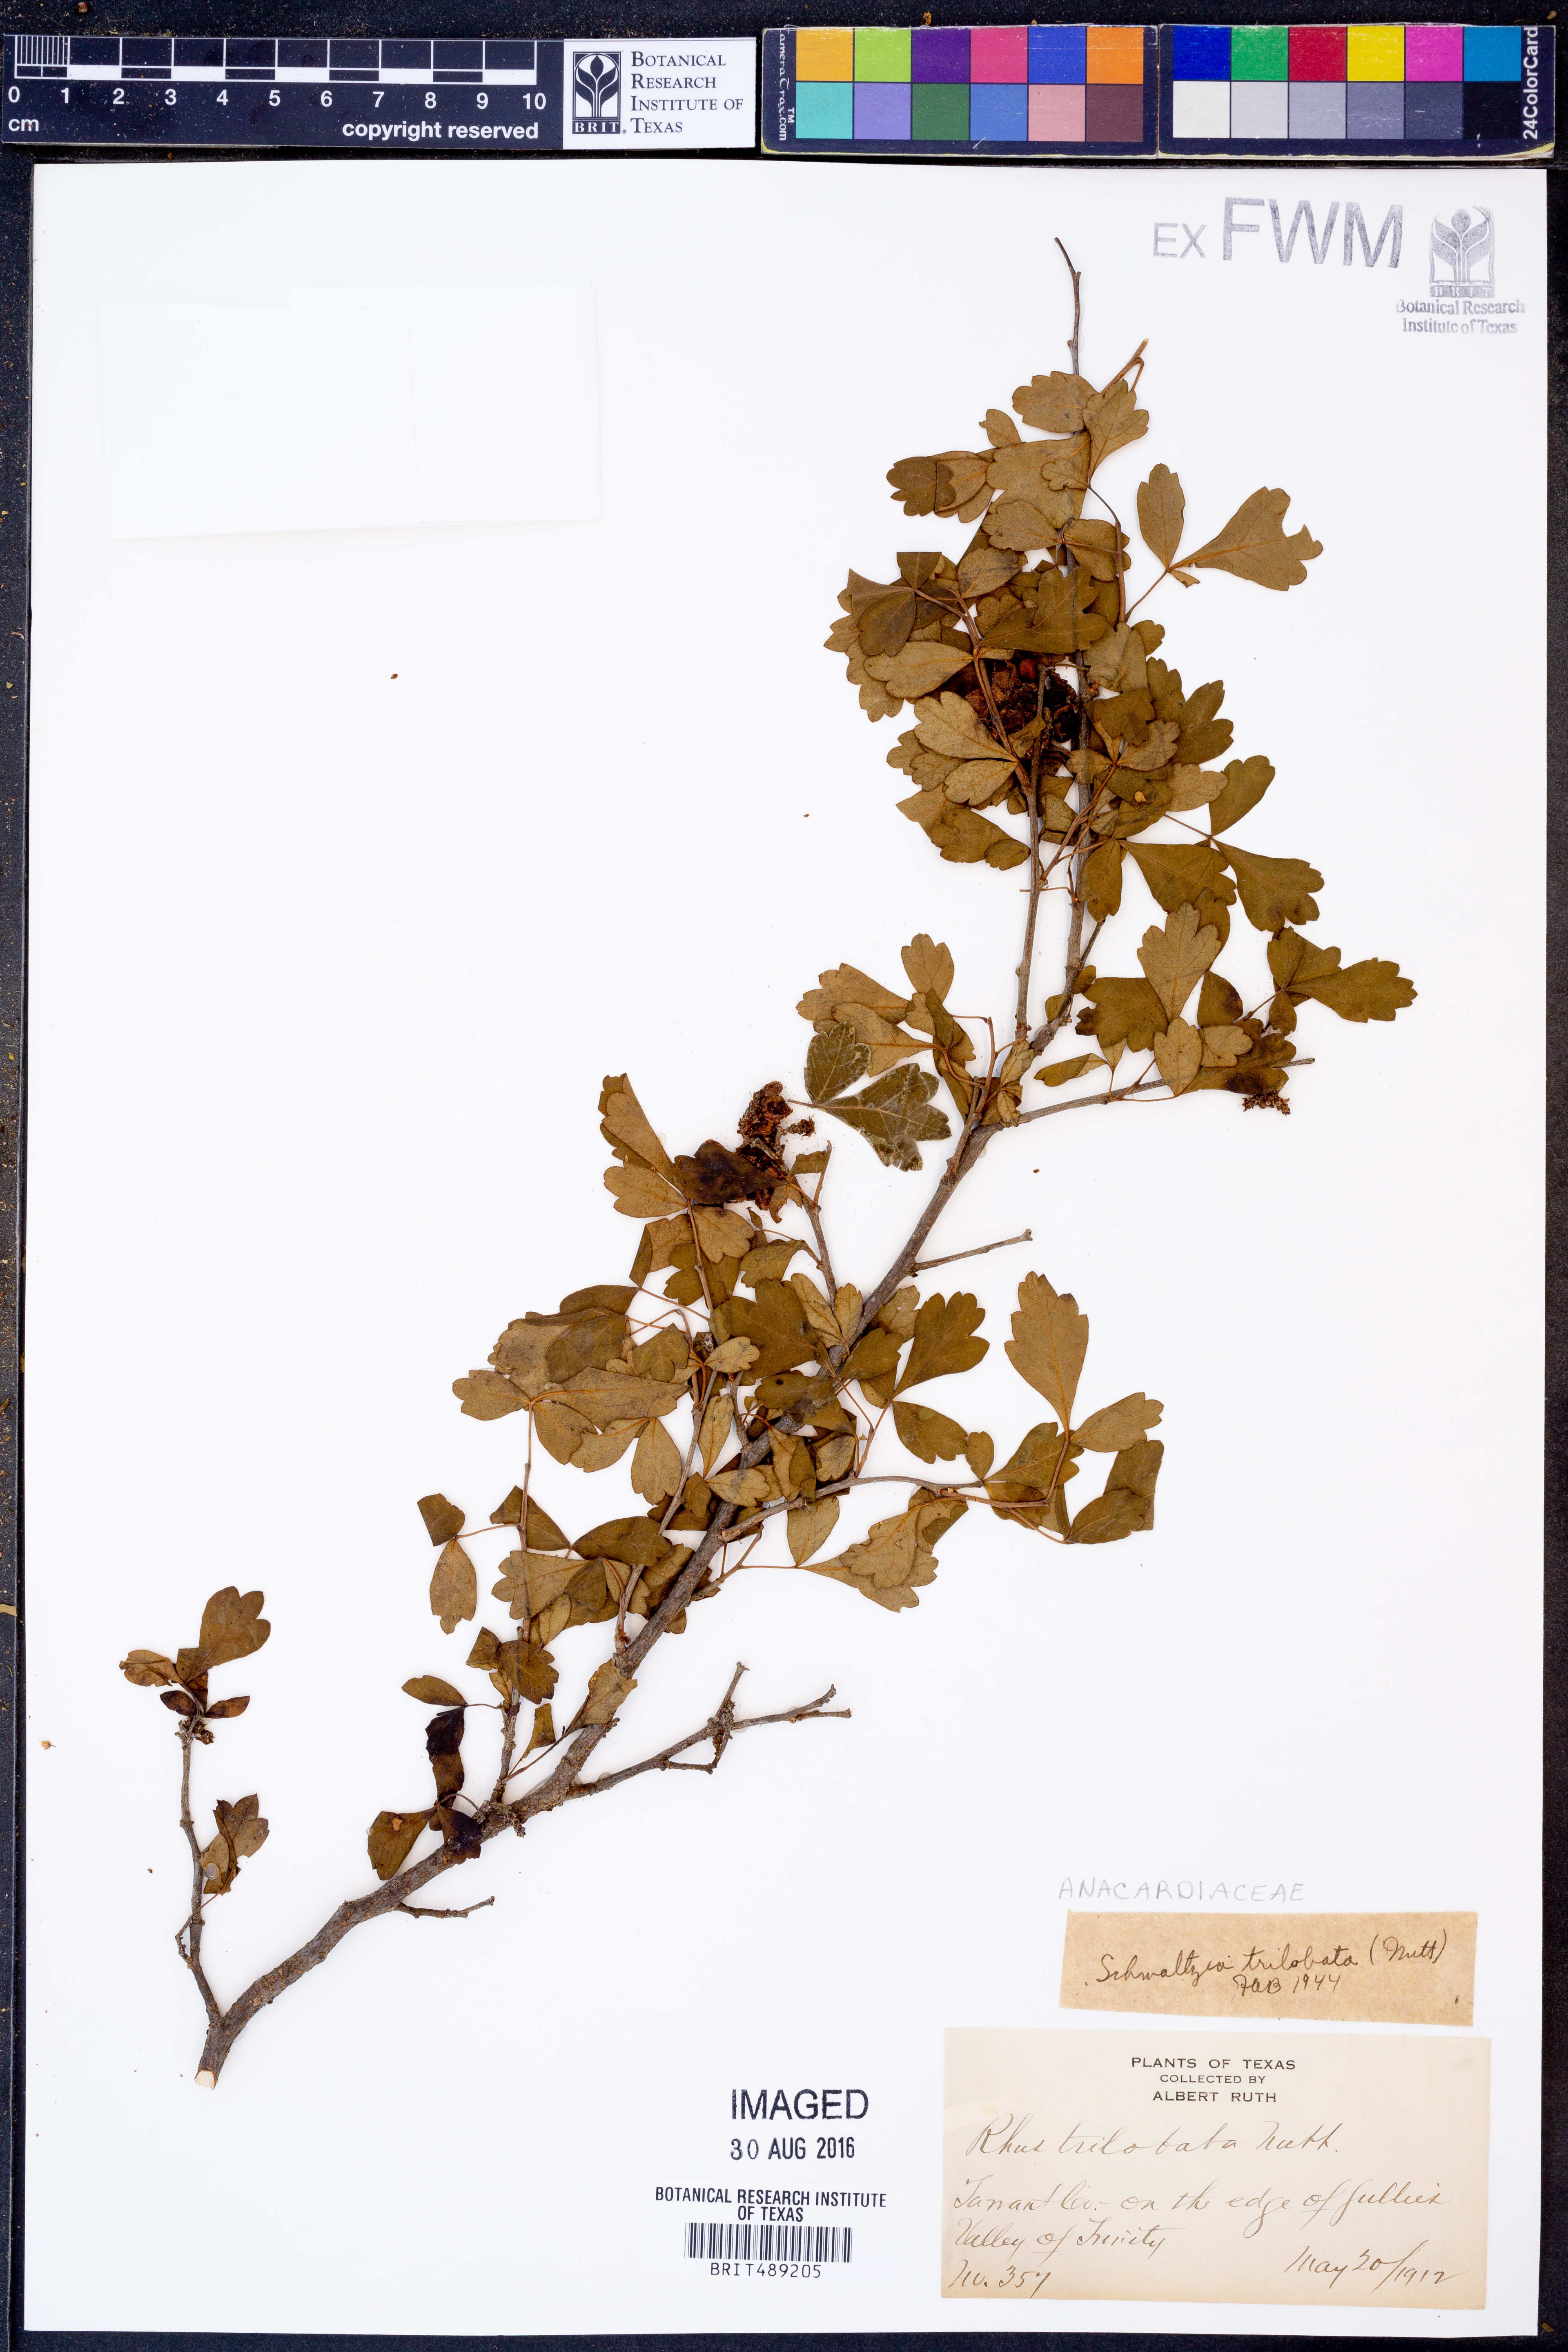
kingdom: Plantae
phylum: Tracheophyta
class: Magnoliopsida
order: Sapindales
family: Anacardiaceae
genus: Rhus
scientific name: Rhus trilobata
